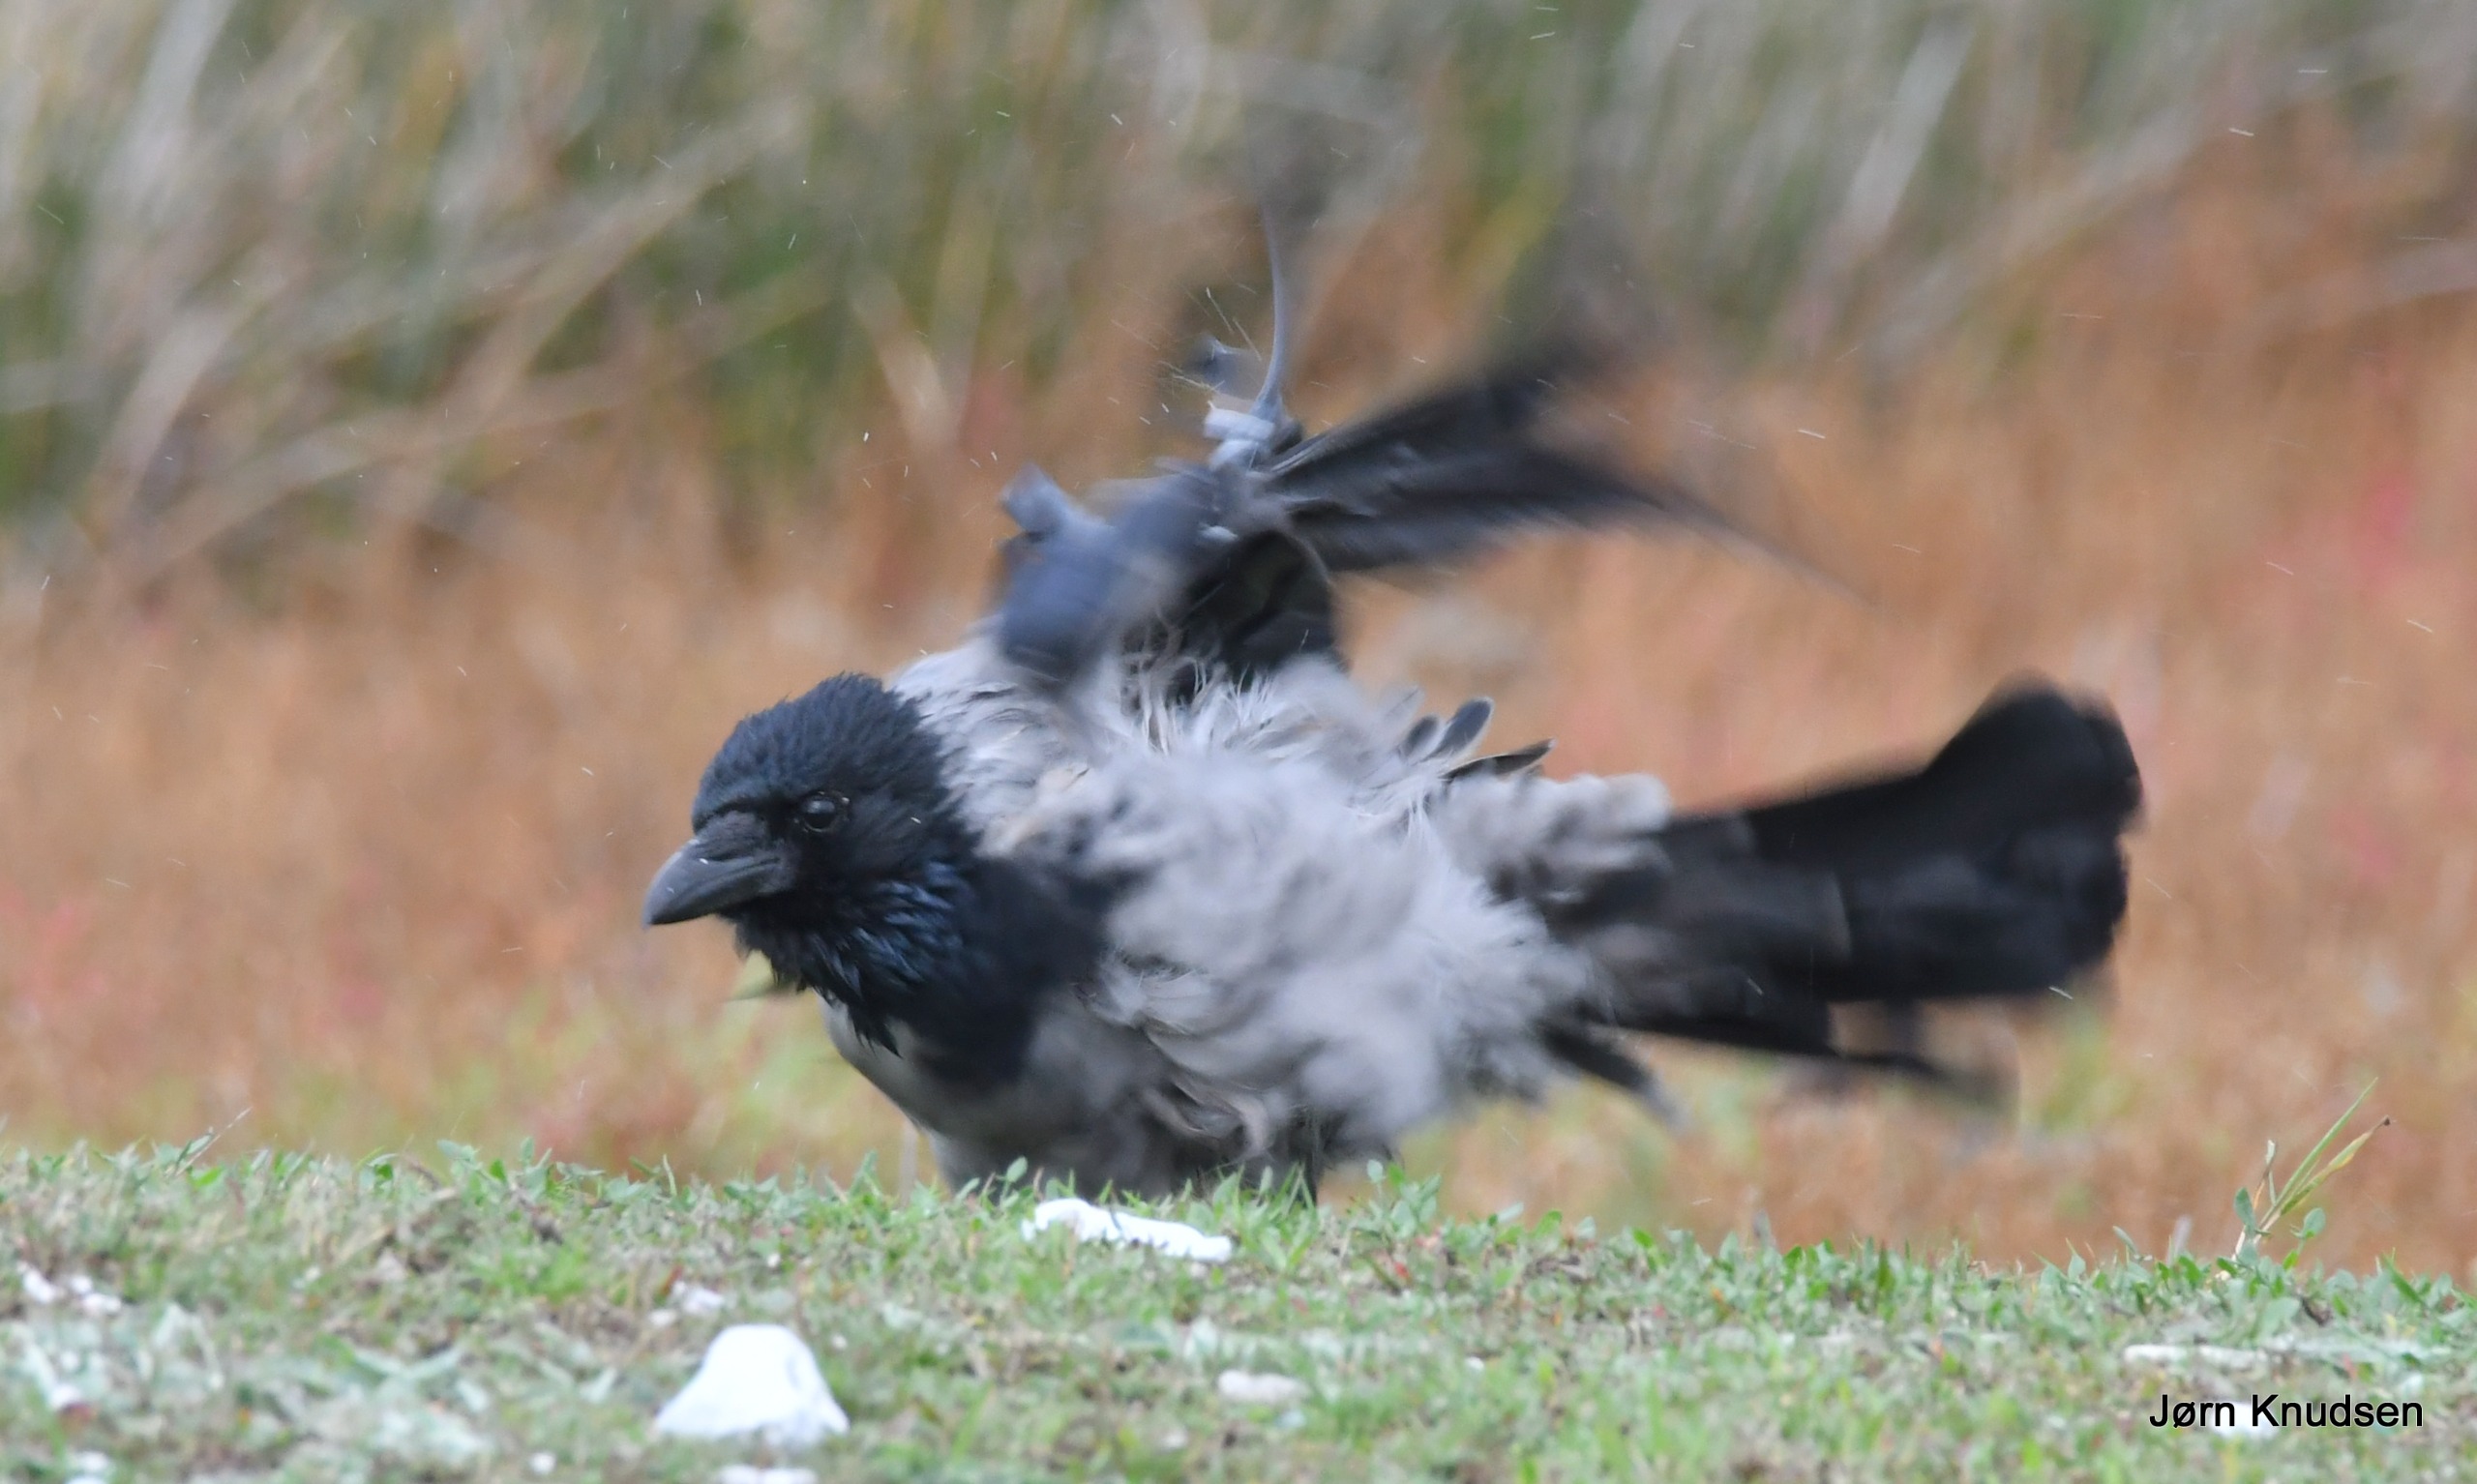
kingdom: Animalia
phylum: Chordata
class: Aves
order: Passeriformes
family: Corvidae
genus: Corvus
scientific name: Corvus cornix
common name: Gråkrage
